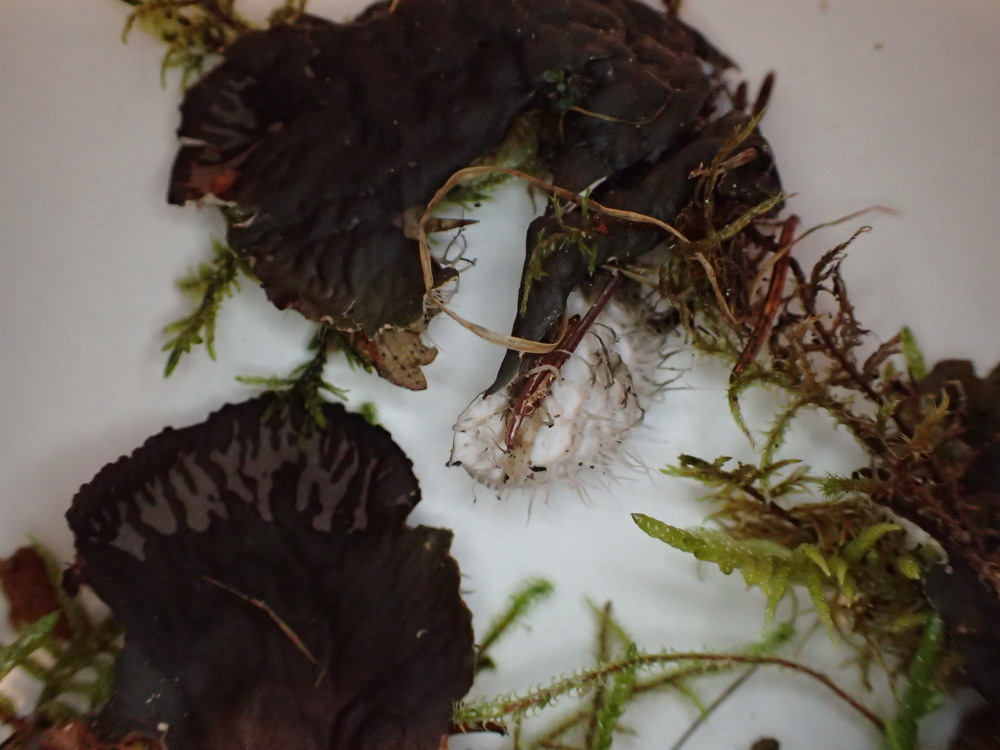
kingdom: Fungi
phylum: Ascomycota
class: Lecanoromycetes
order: Peltigerales
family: Peltigeraceae
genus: Peltigera
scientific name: Peltigera membranacea
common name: tynd skjoldlav
